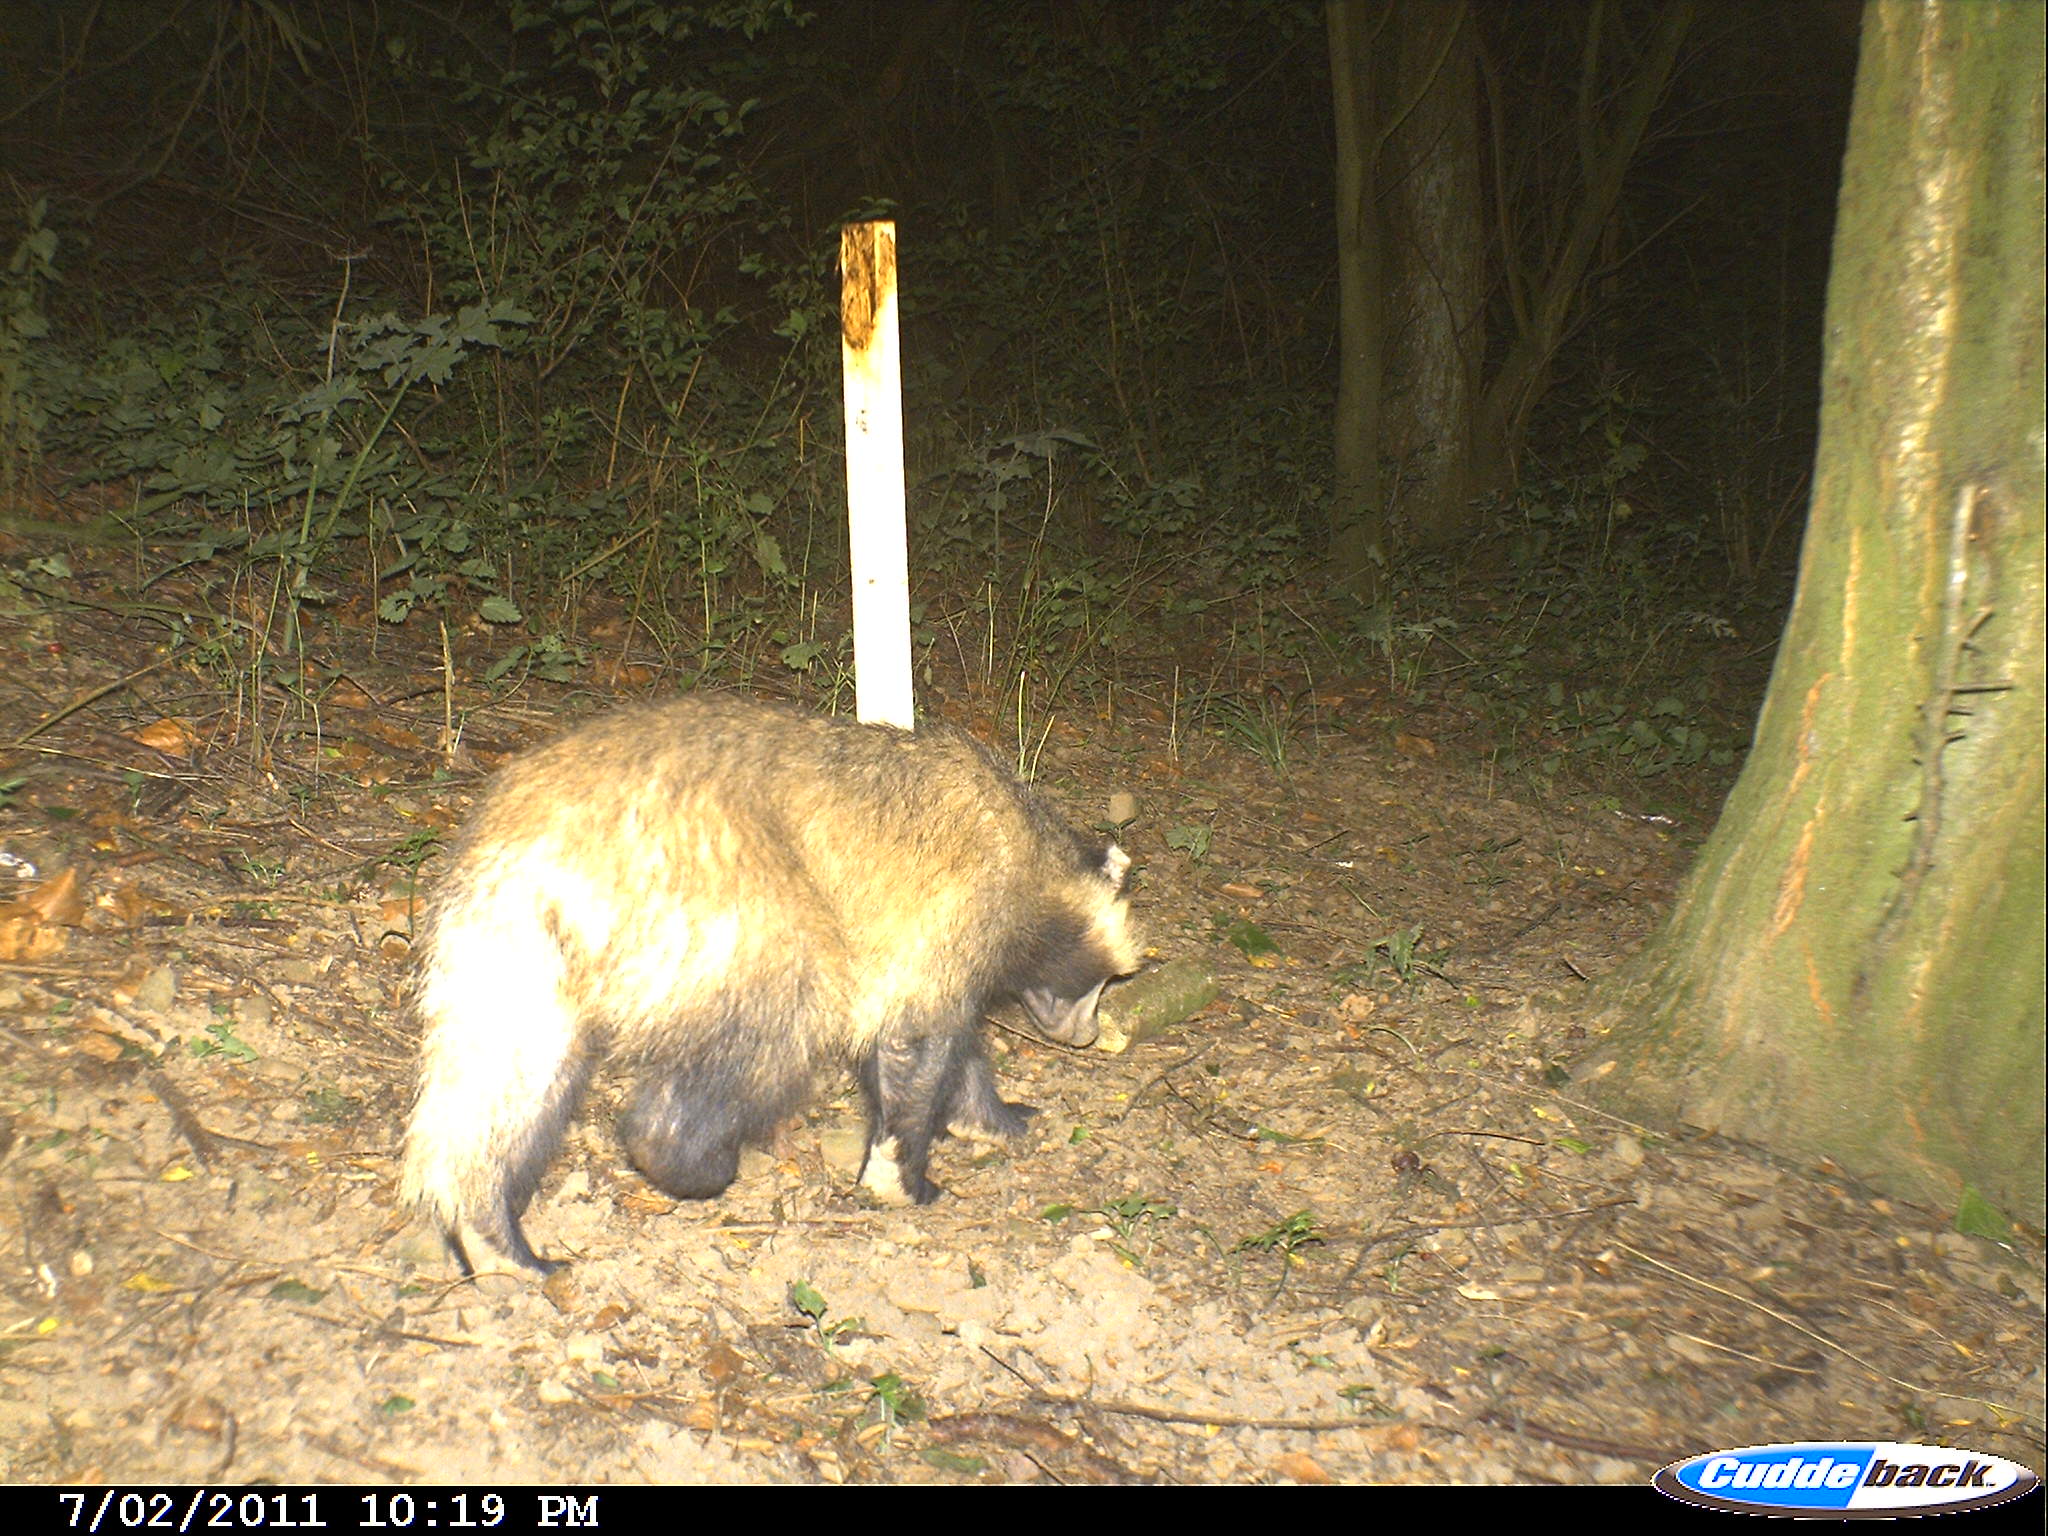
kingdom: Animalia
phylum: Chordata
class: Mammalia
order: Carnivora
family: Mustelidae
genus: Meles
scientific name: Meles meles
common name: Eurasian badger
